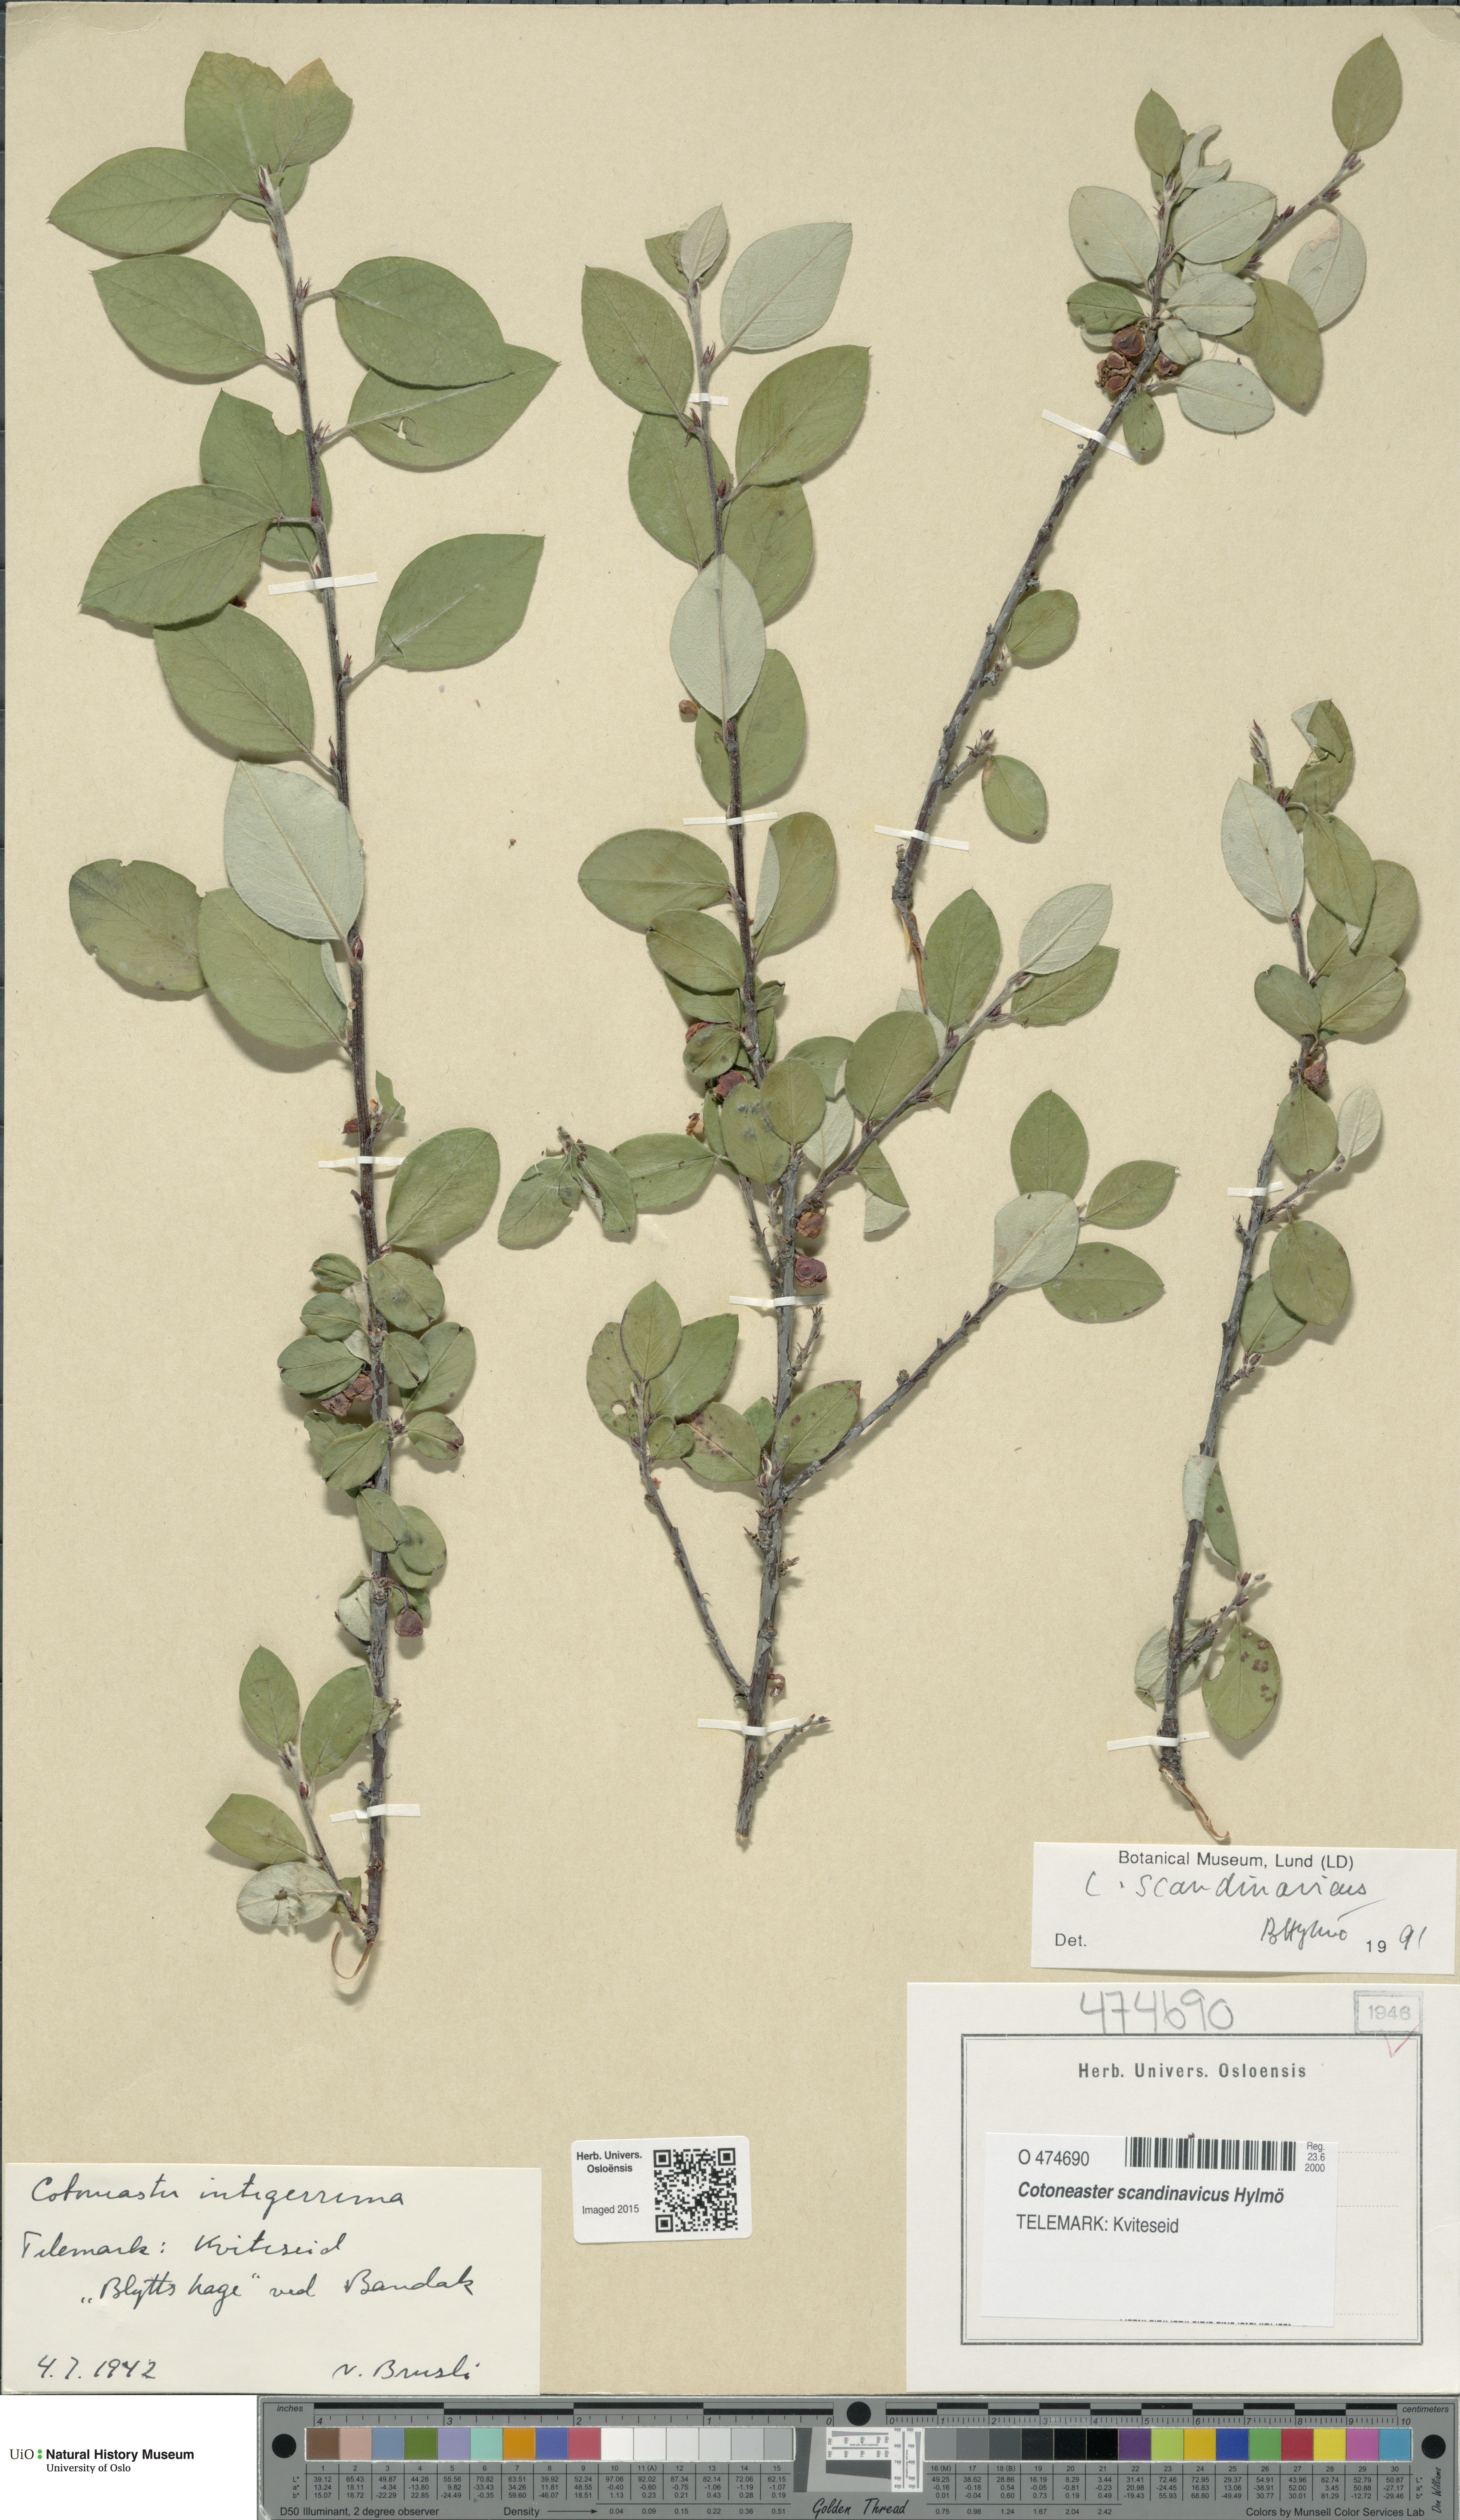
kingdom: Plantae
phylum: Tracheophyta
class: Magnoliopsida
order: Rosales
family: Rosaceae
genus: Cotoneaster
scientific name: Cotoneaster integerrimus
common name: Wild cotoneaster
